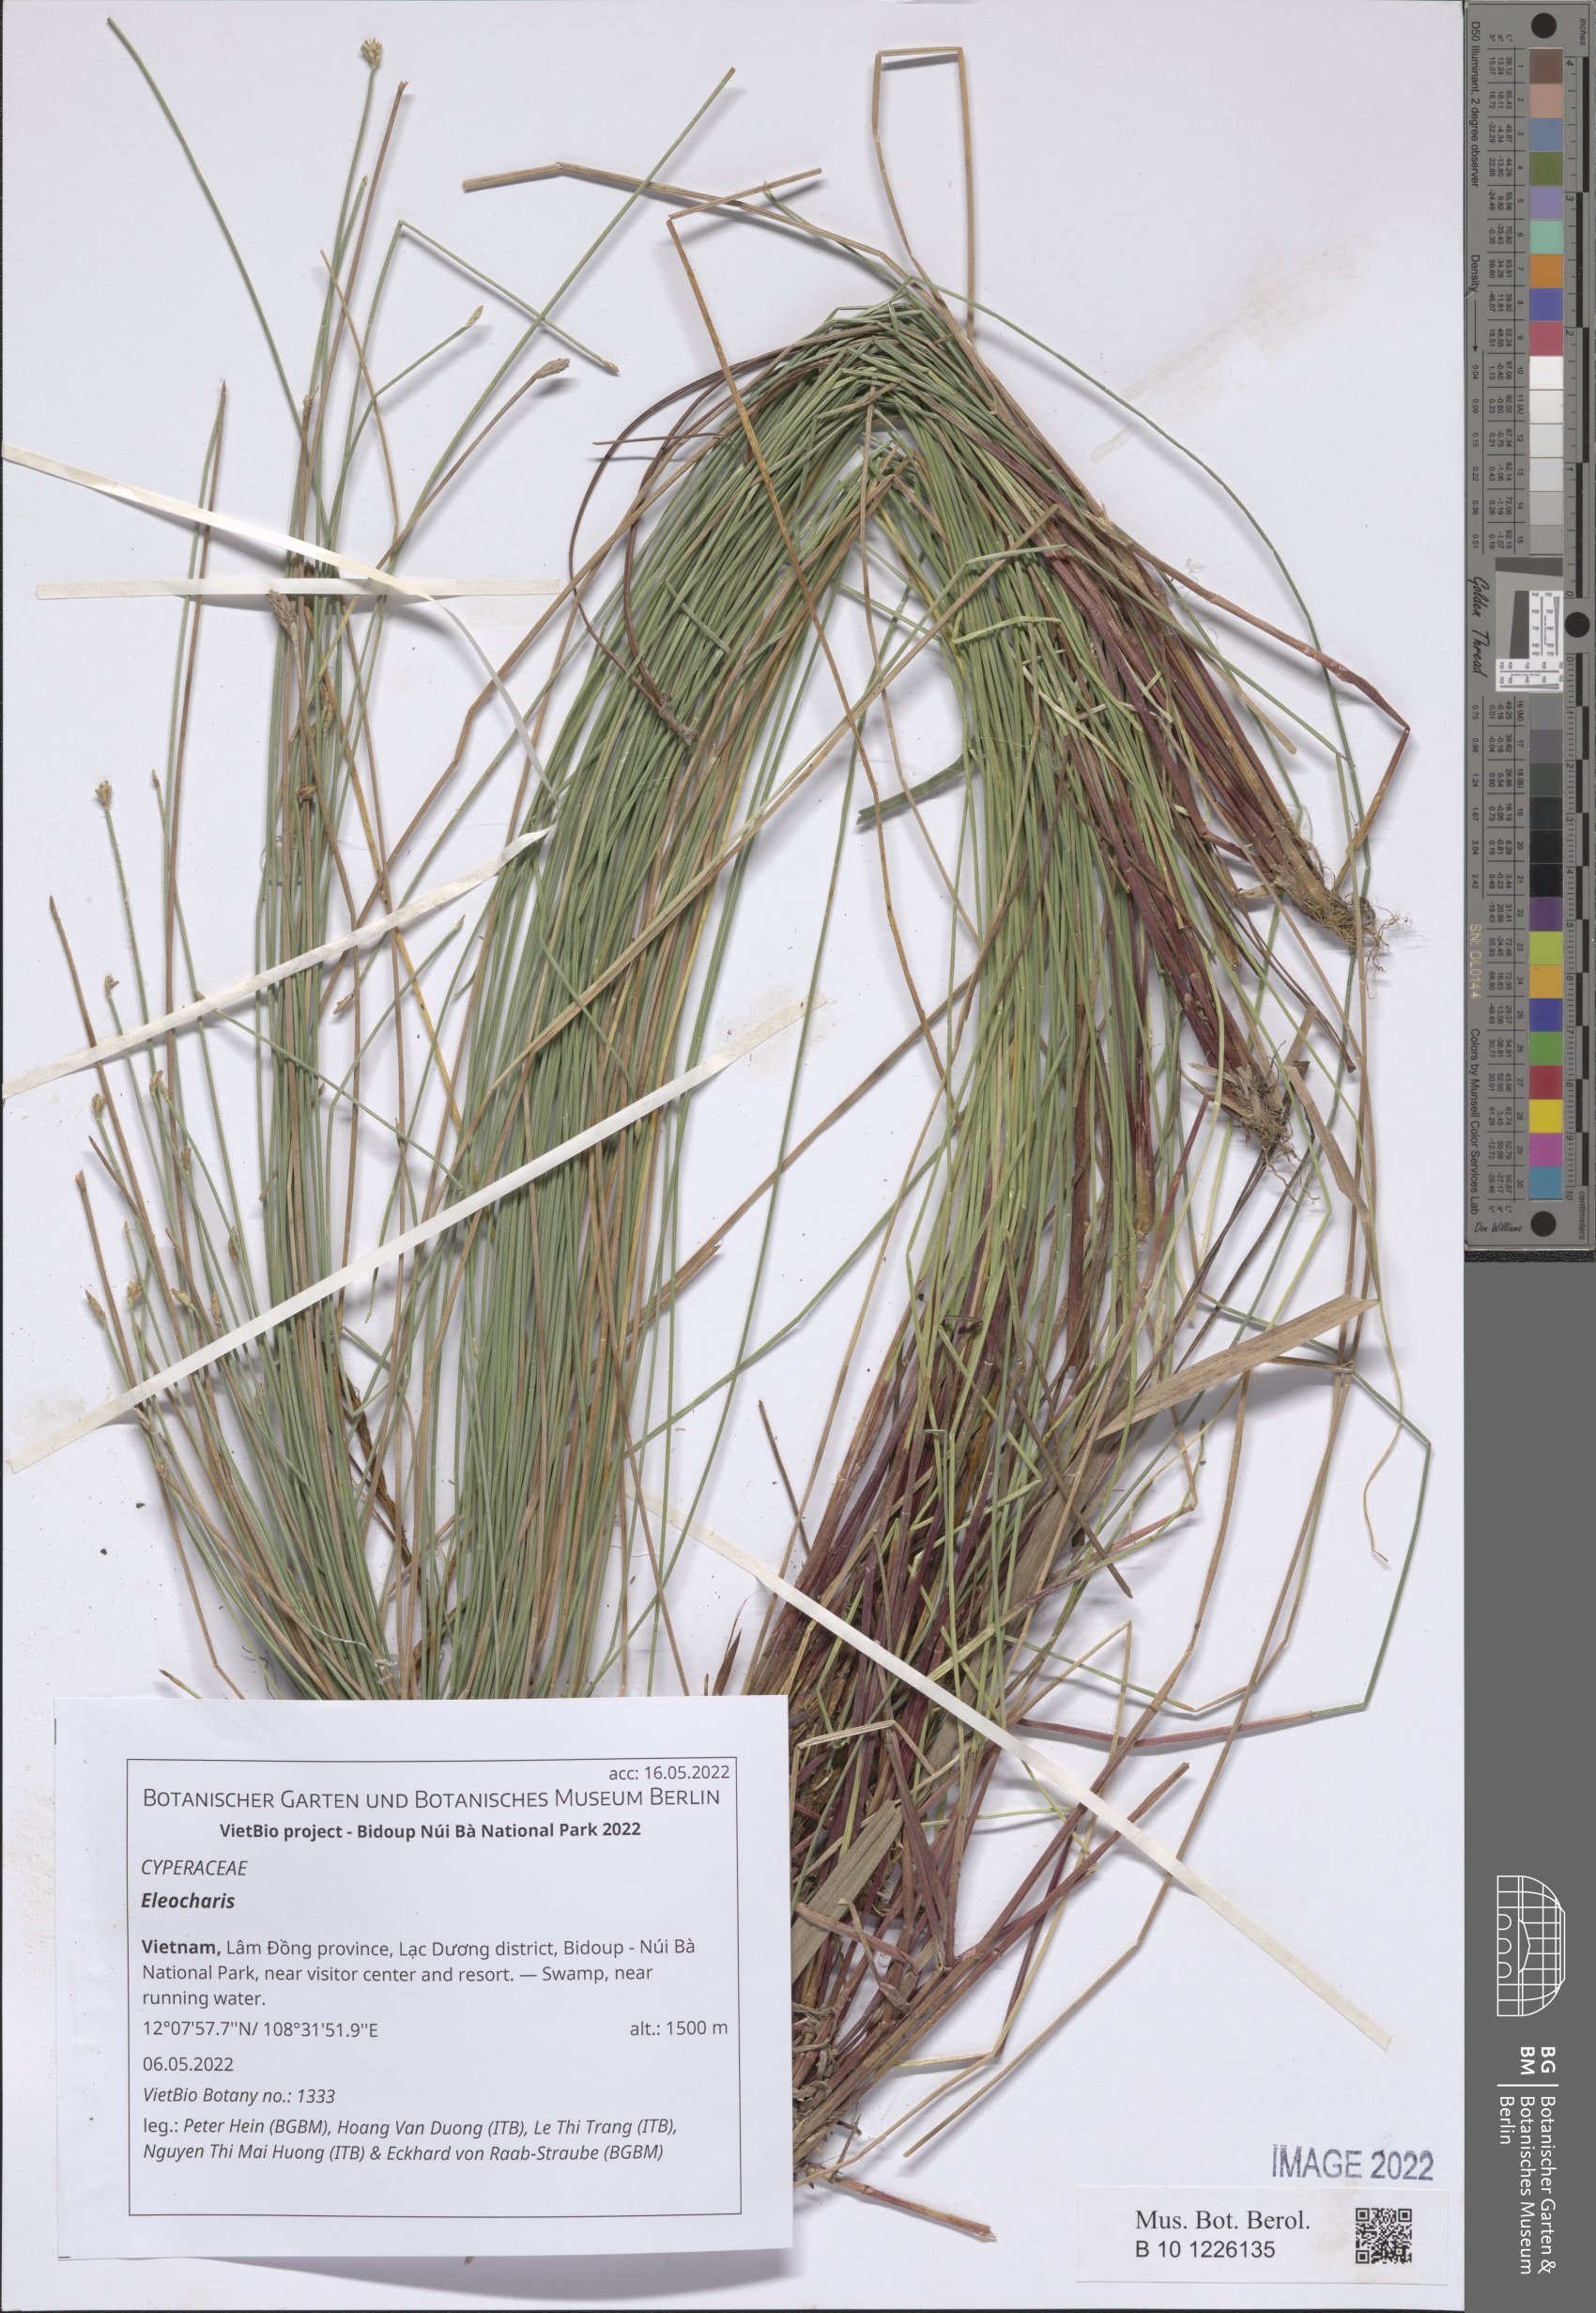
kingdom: Plantae
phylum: Tracheophyta
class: Liliopsida
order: Poales
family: Cyperaceae
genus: Eleocharis
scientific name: Eleocharis
